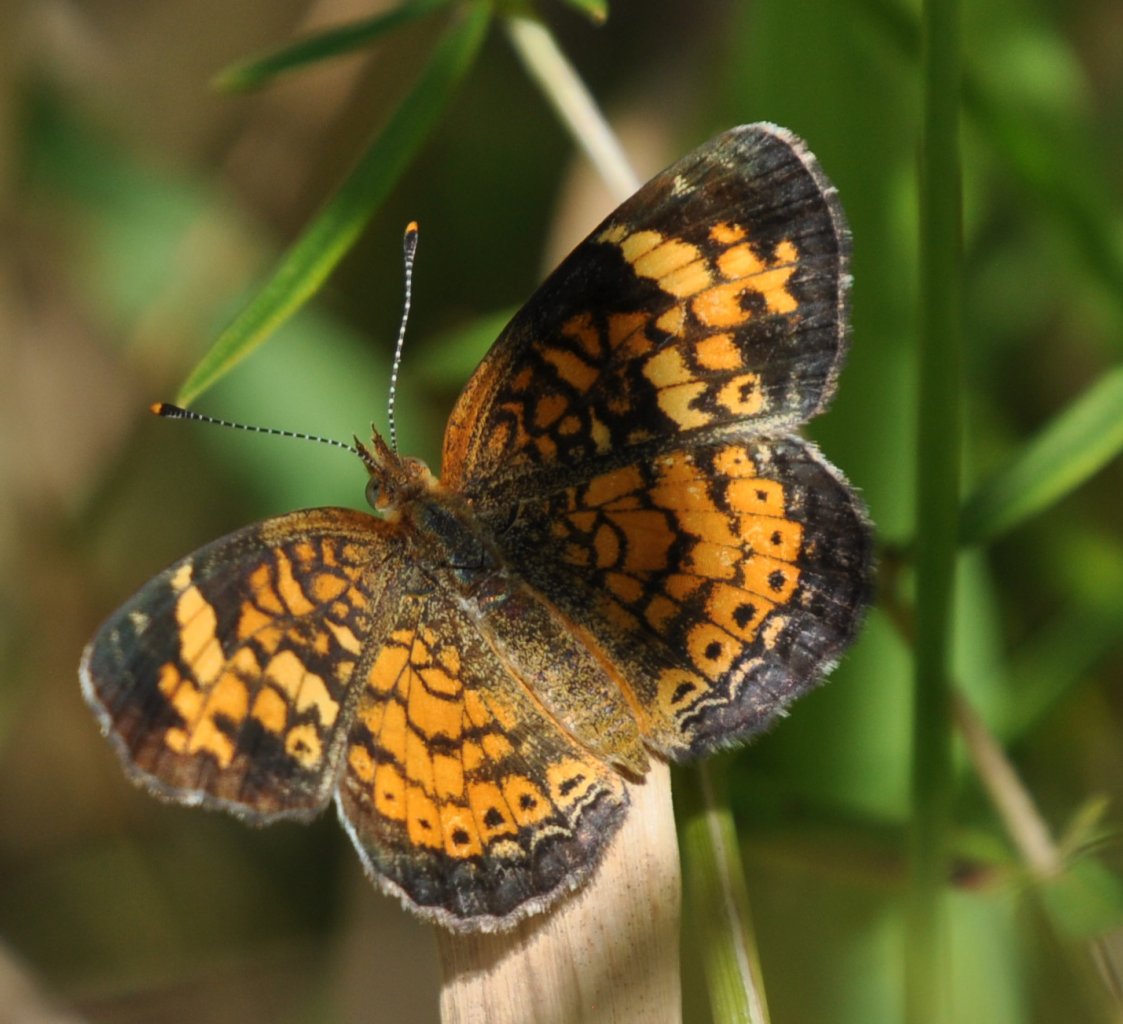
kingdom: Animalia
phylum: Arthropoda
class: Insecta
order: Lepidoptera
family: Nymphalidae
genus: Phyciodes
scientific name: Phyciodes tharos
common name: Pearl Crescent
